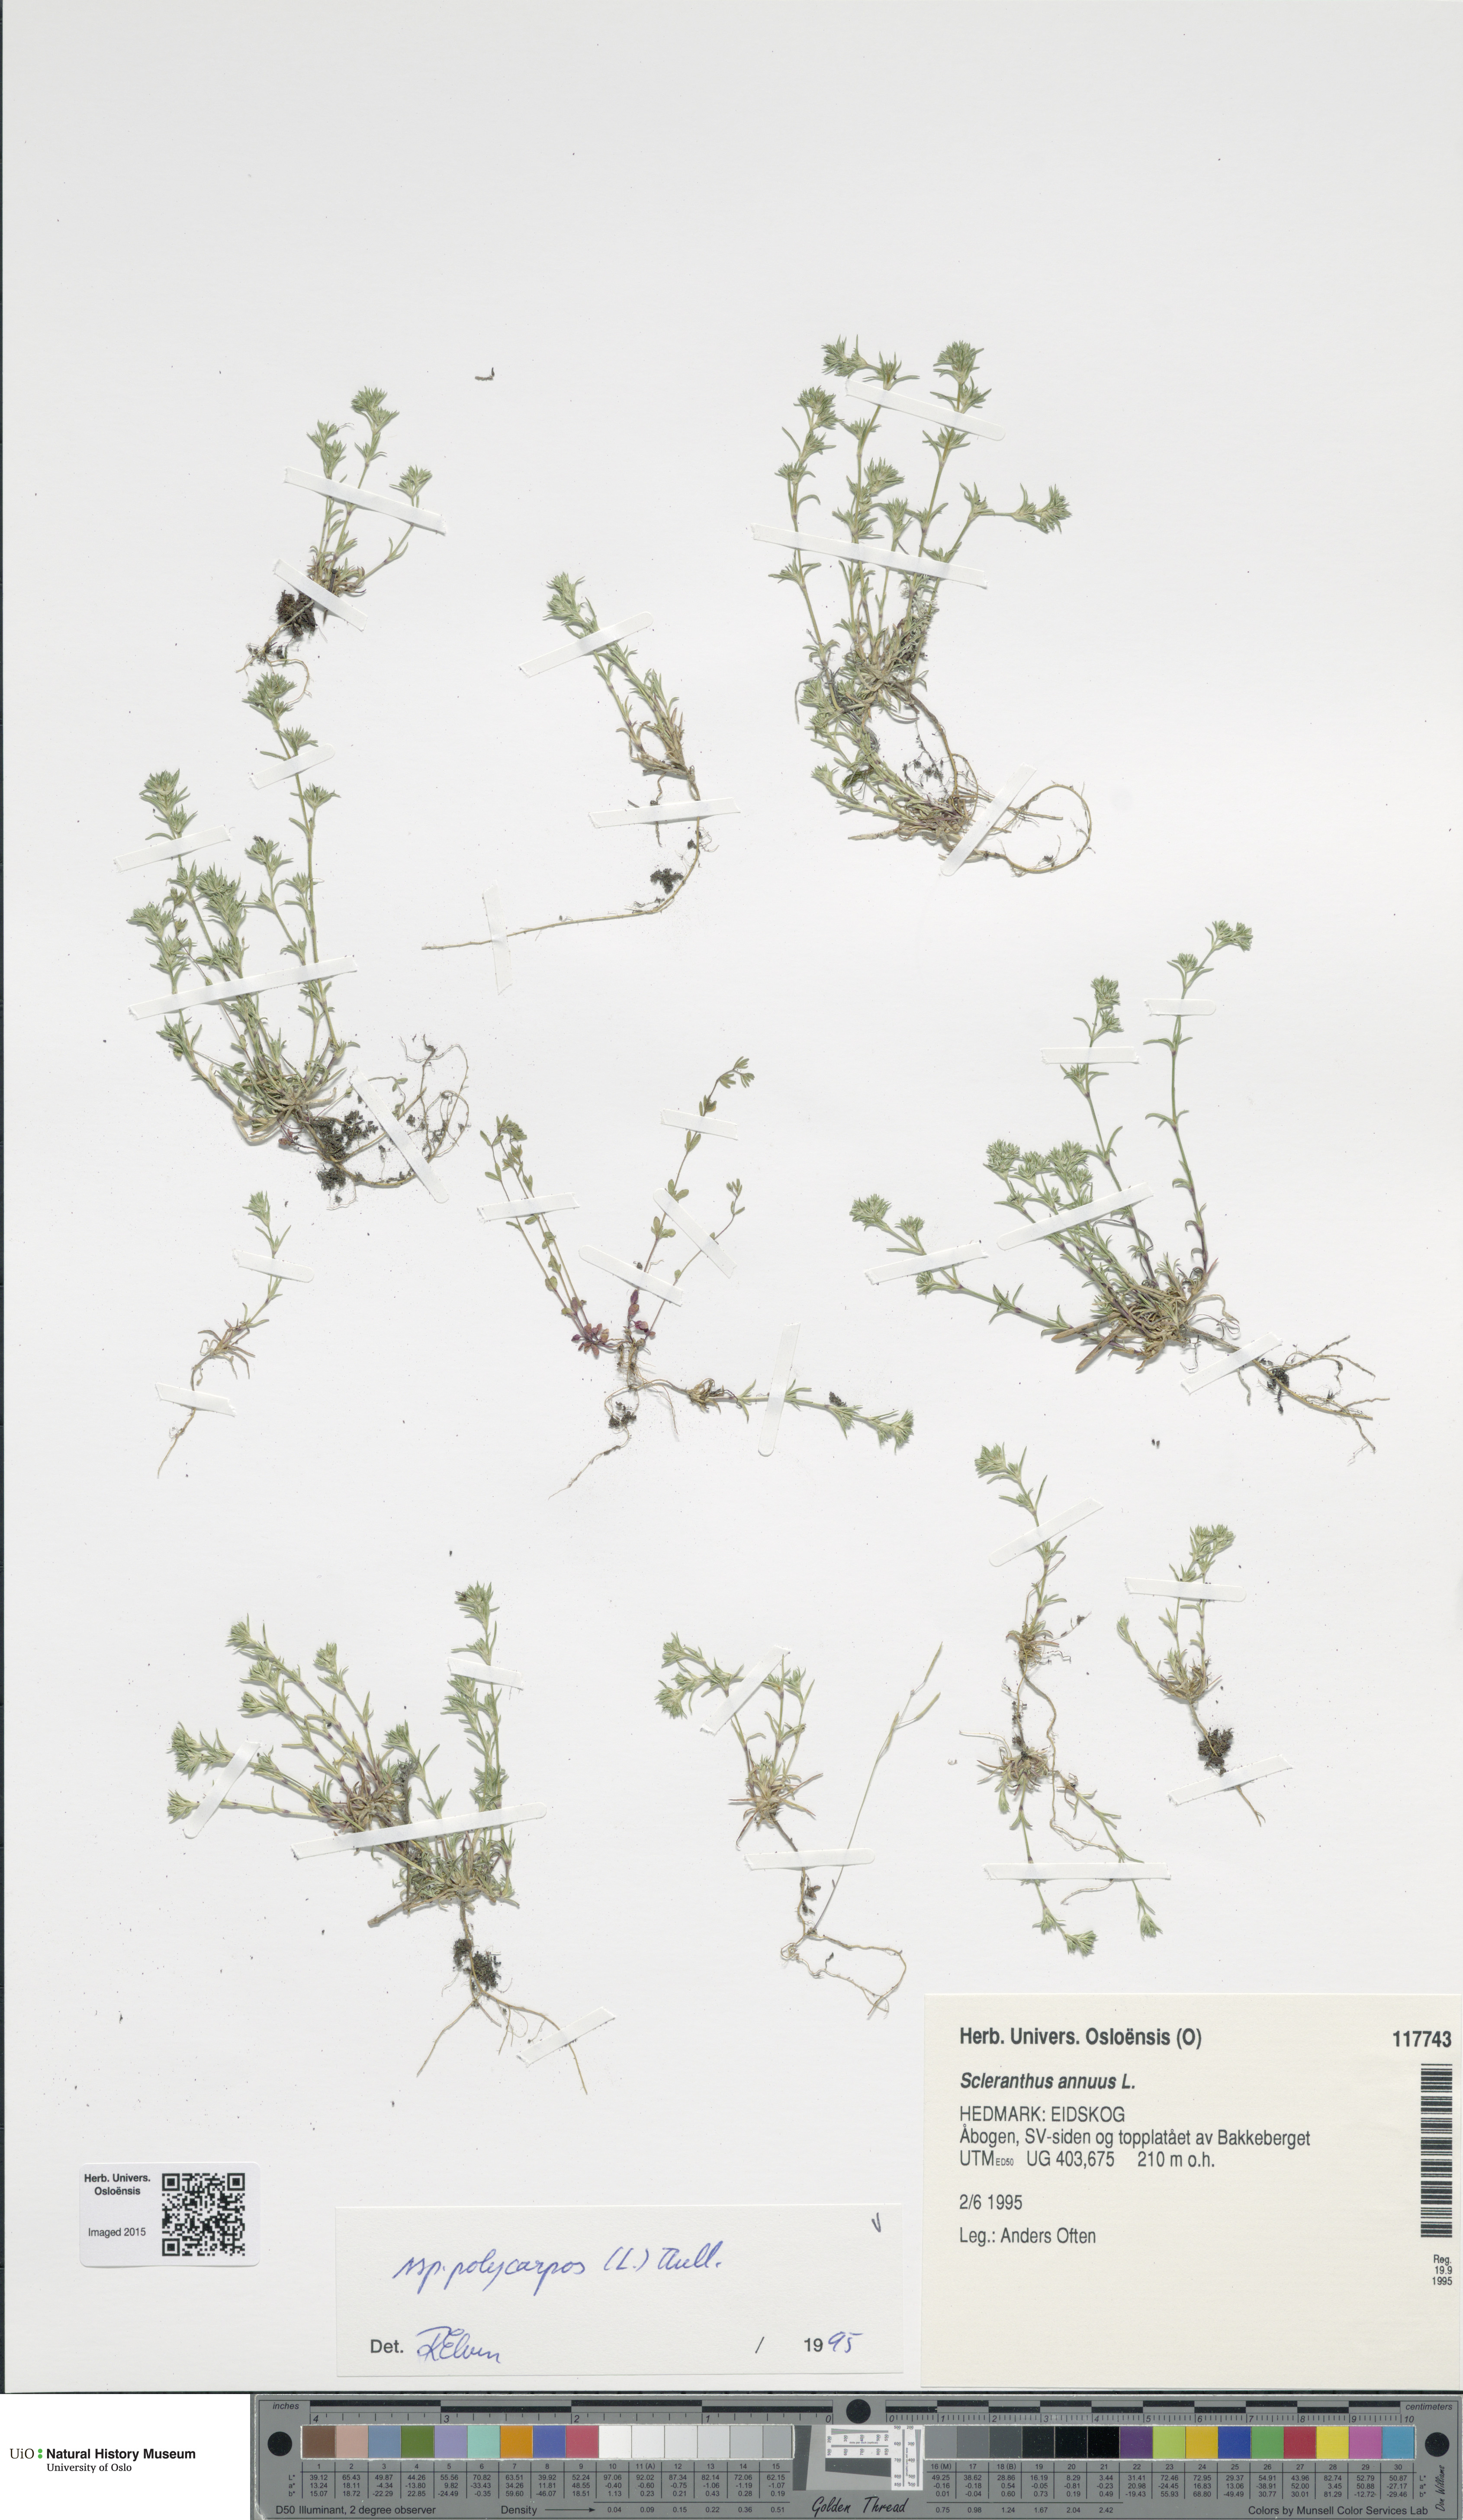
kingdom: Plantae
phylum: Tracheophyta
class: Magnoliopsida
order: Caryophyllales
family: Caryophyllaceae
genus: Scleranthus
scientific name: Scleranthus annuus
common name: Annual knawel
